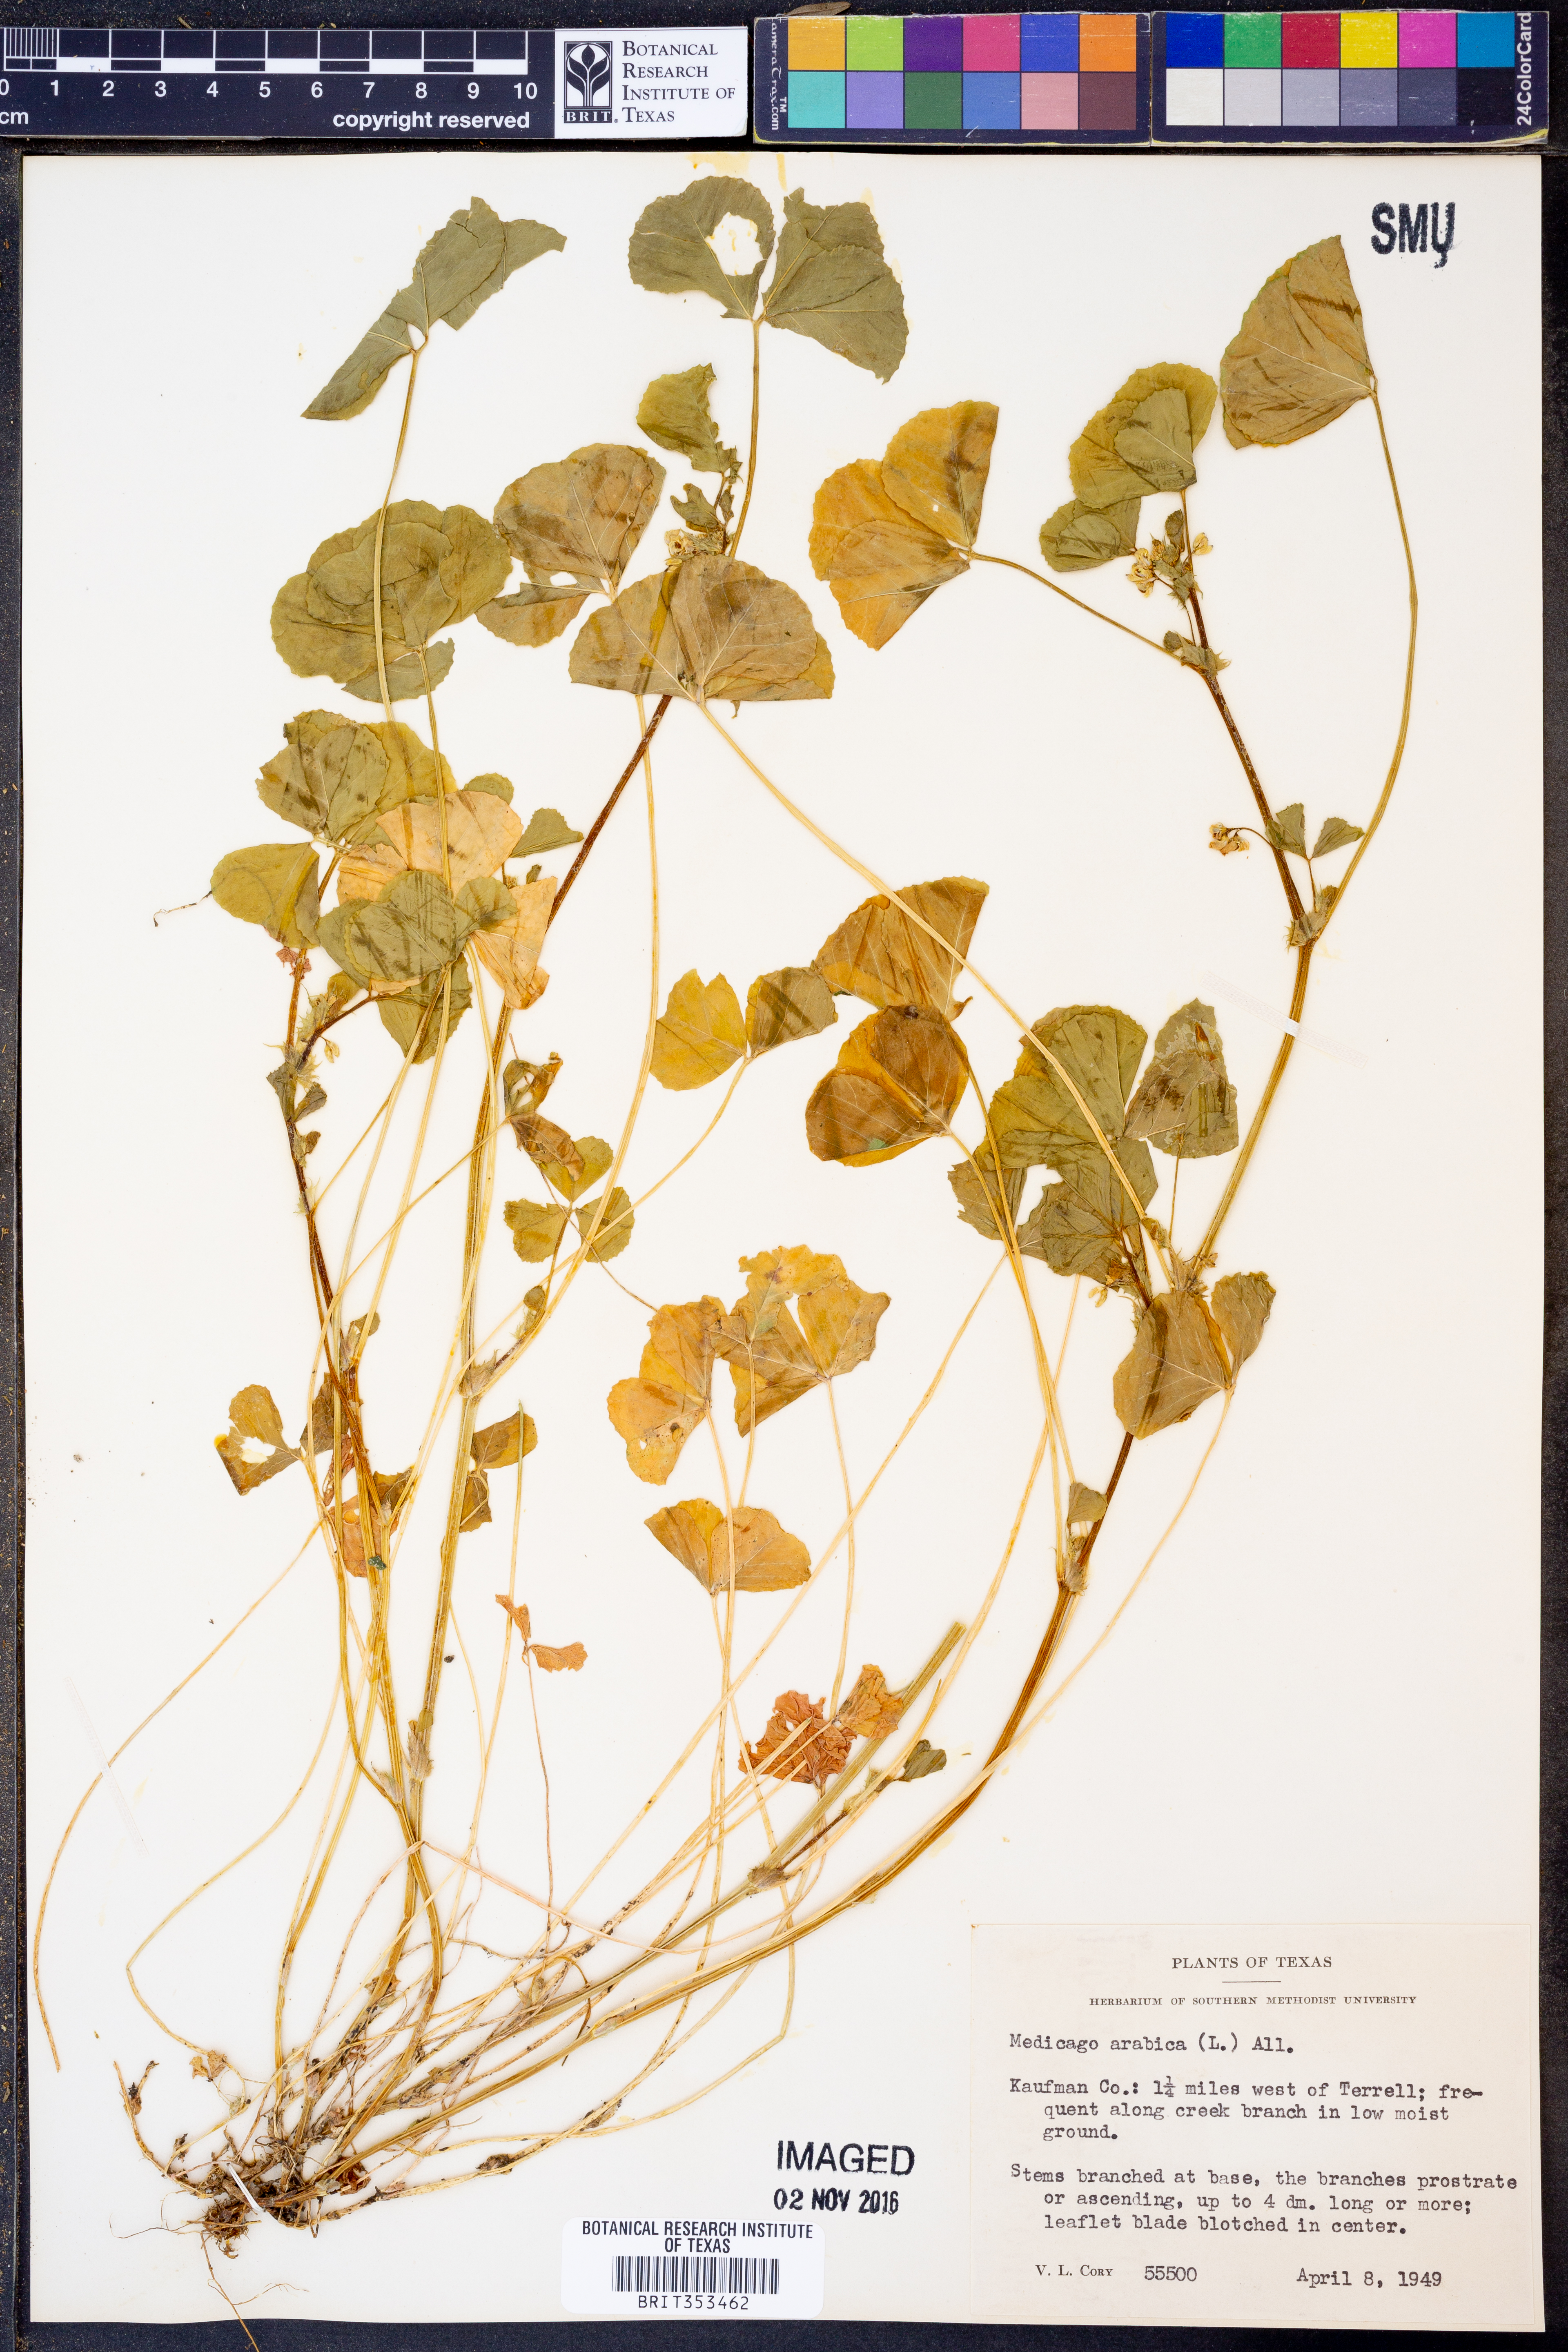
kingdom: Plantae
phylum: Tracheophyta
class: Magnoliopsida
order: Fabales
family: Fabaceae
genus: Medicago
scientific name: Medicago arabica
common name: Spotted medick
